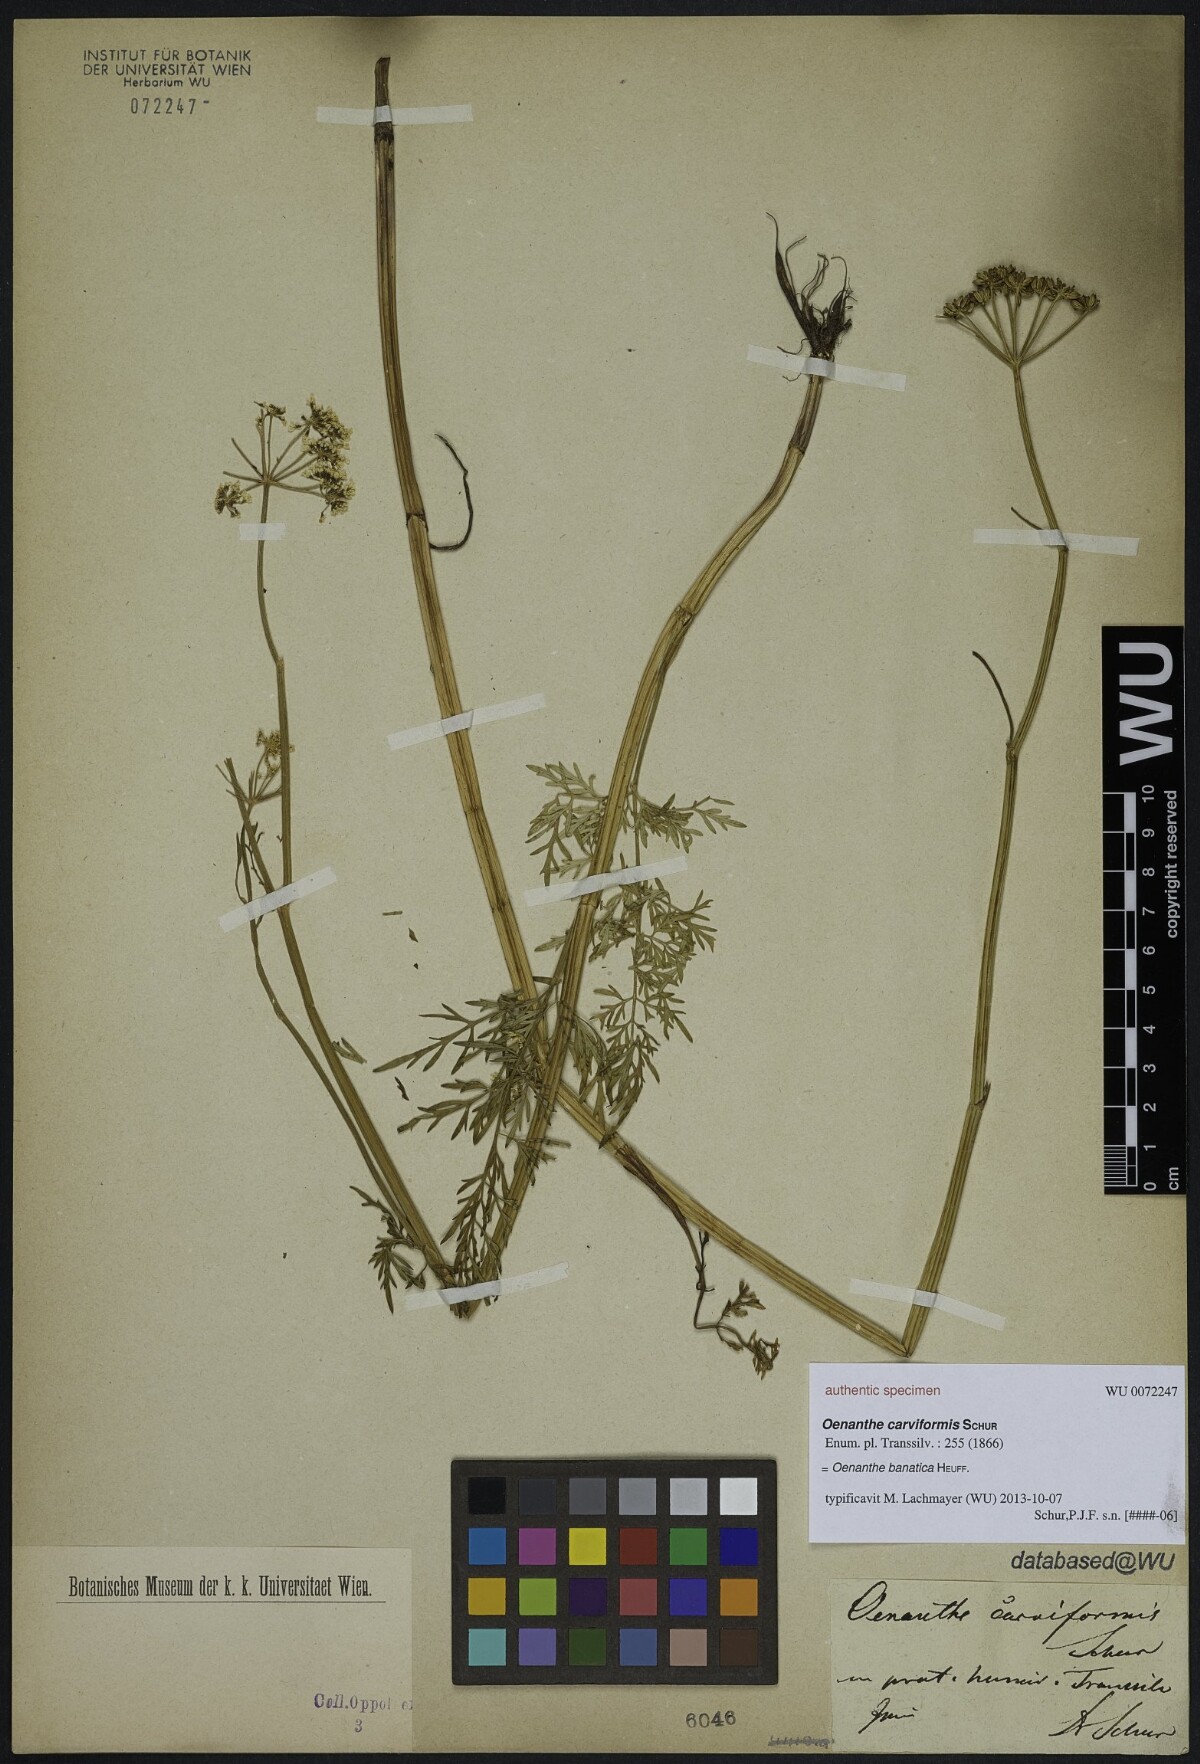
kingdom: Plantae
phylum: Tracheophyta
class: Magnoliopsida
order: Apiales
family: Apiaceae
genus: Oenanthe
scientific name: Oenanthe banatica
